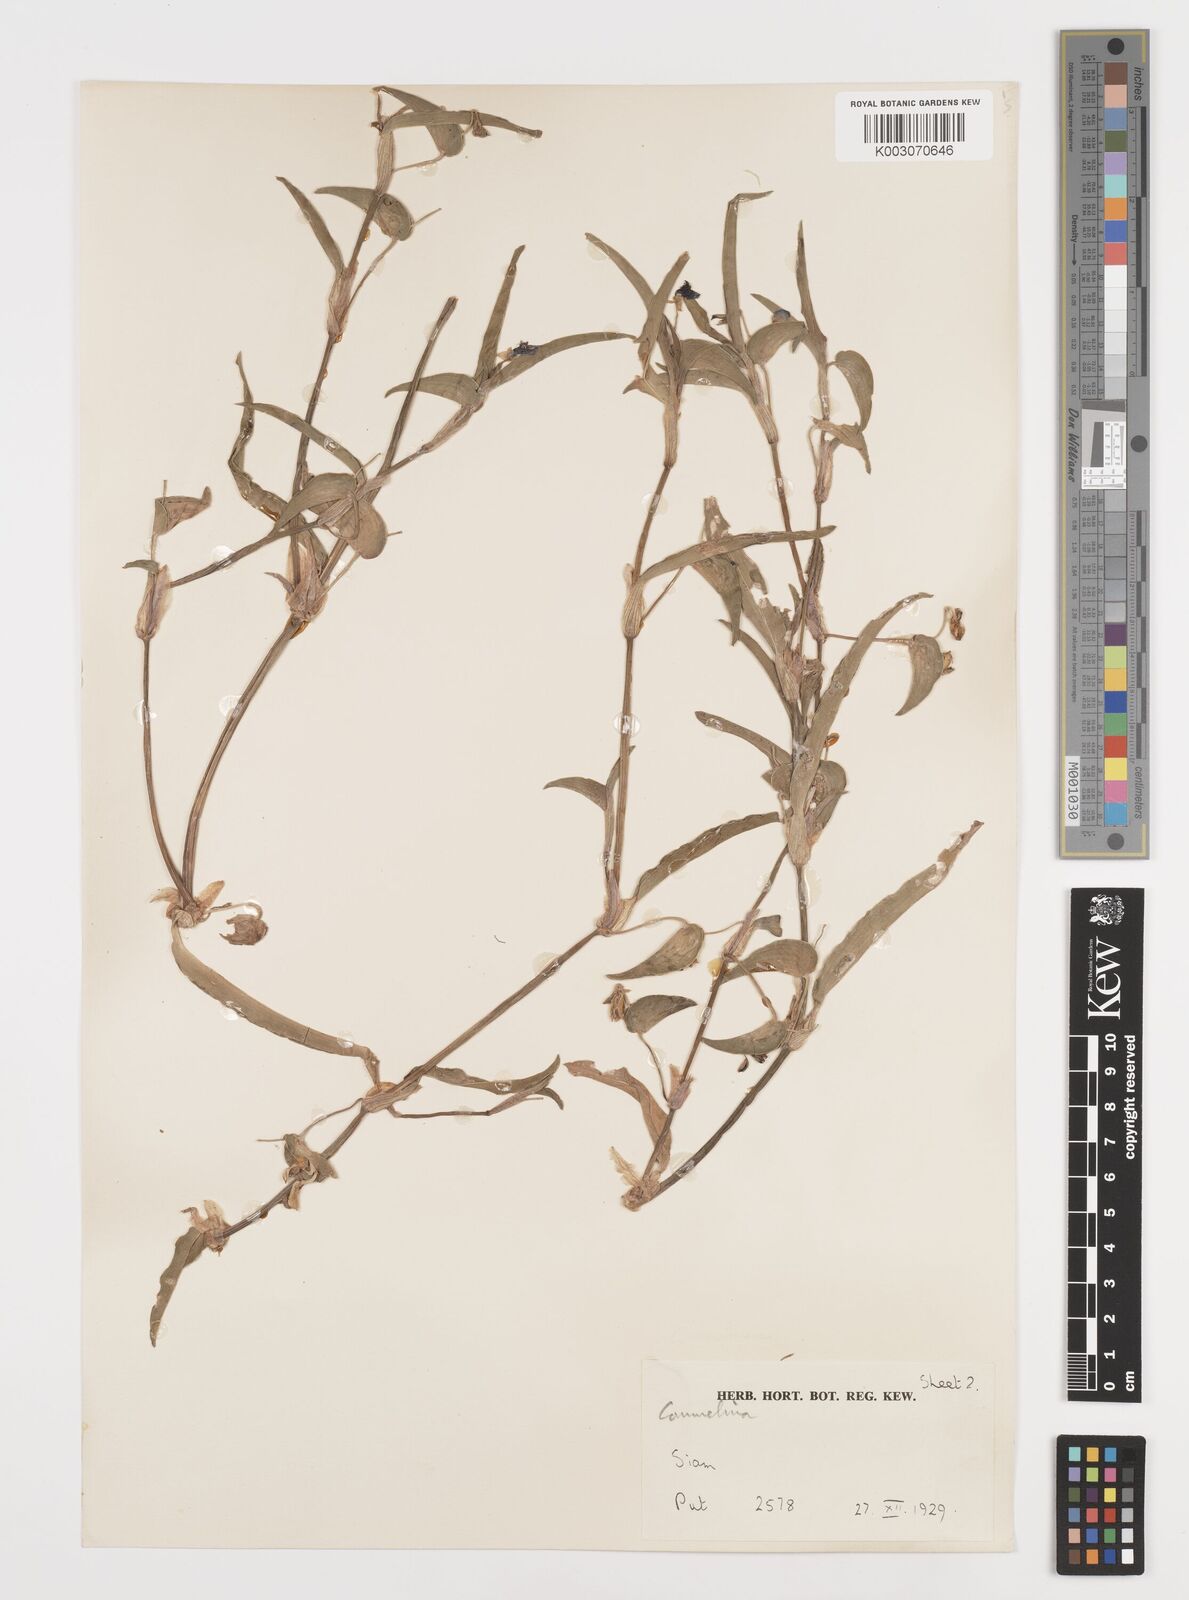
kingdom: Plantae
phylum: Tracheophyta
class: Liliopsida
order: Commelinales
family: Commelinaceae
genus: Commelina
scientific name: Commelina
